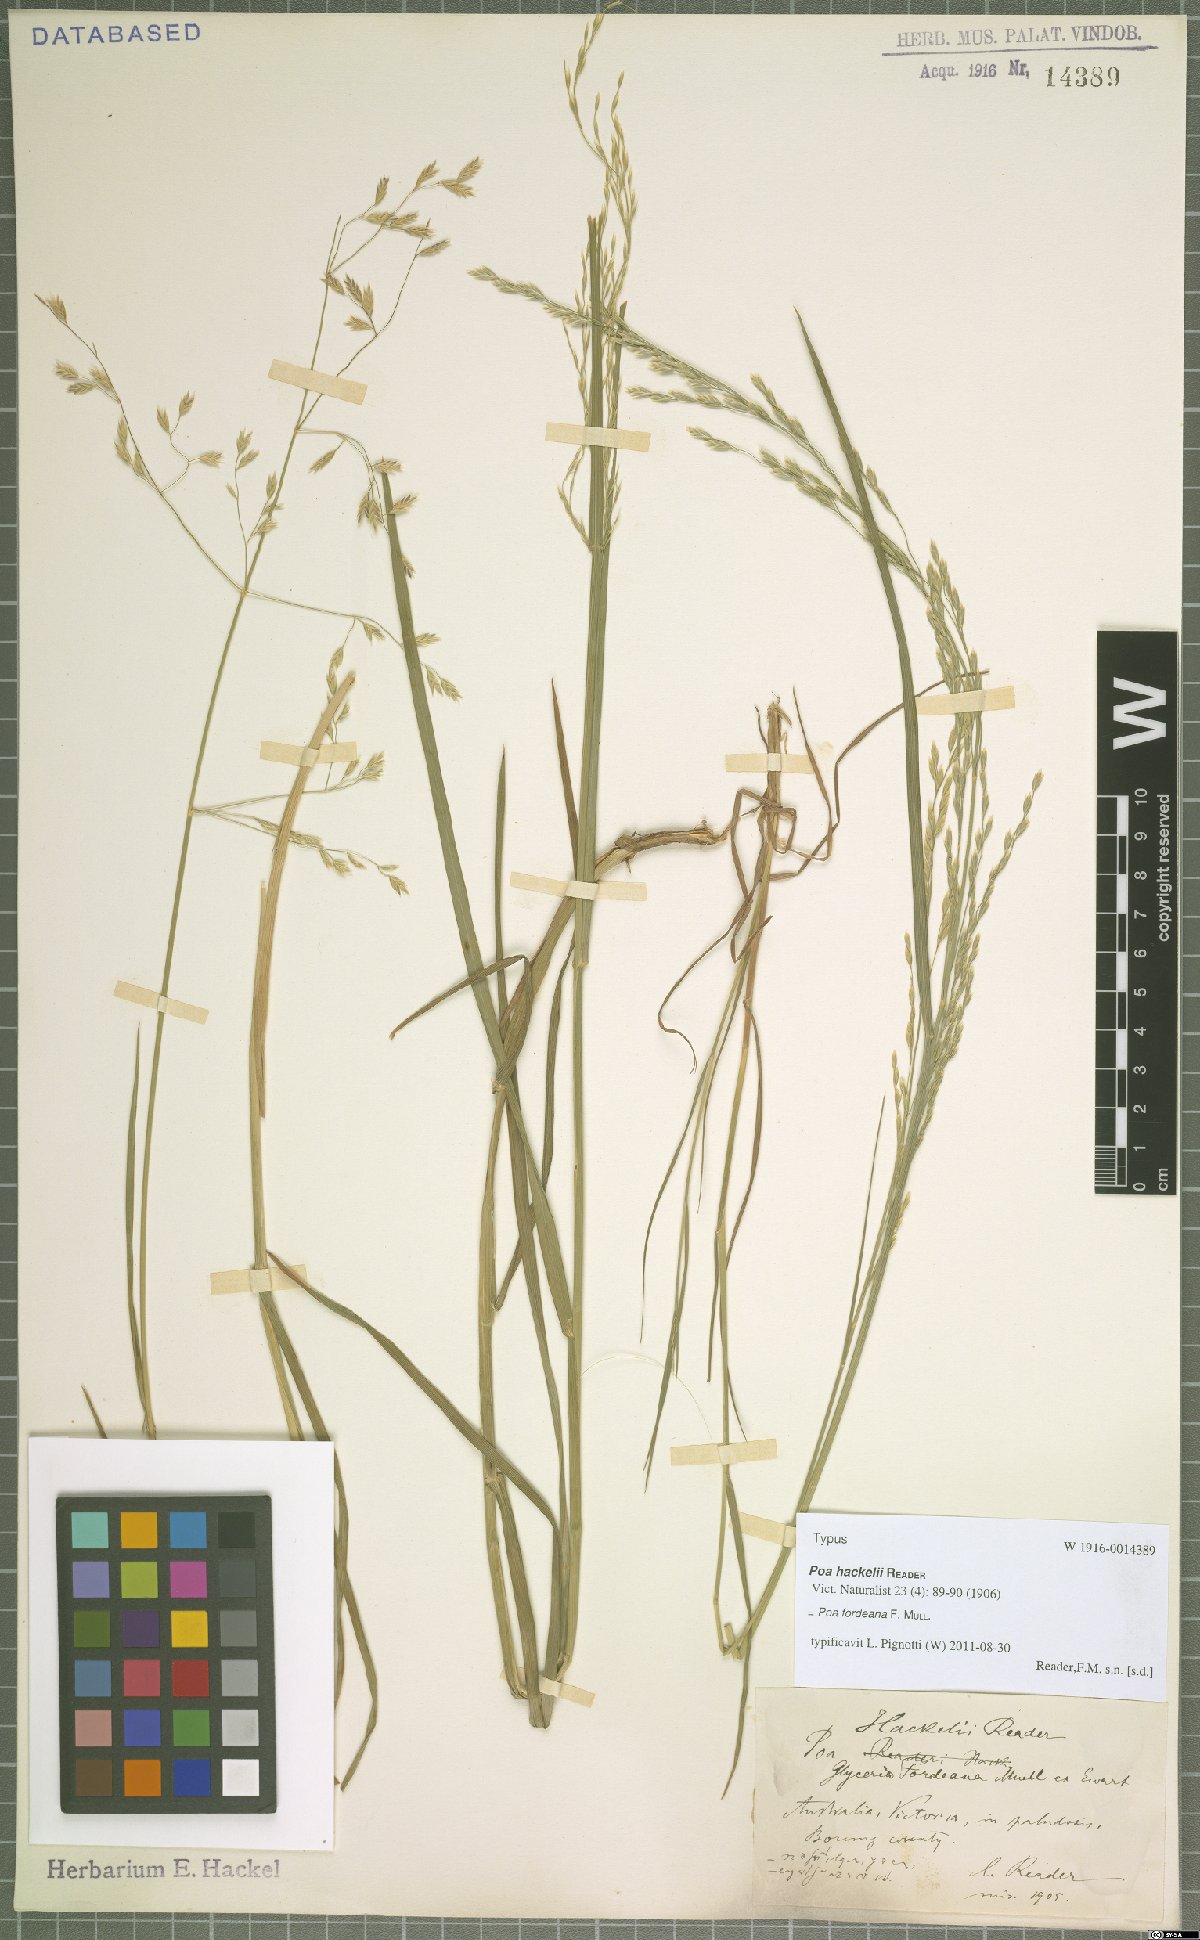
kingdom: Plantae
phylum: Tracheophyta
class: Liliopsida
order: Poales
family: Poaceae
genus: Poa
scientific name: Poa fordeana
